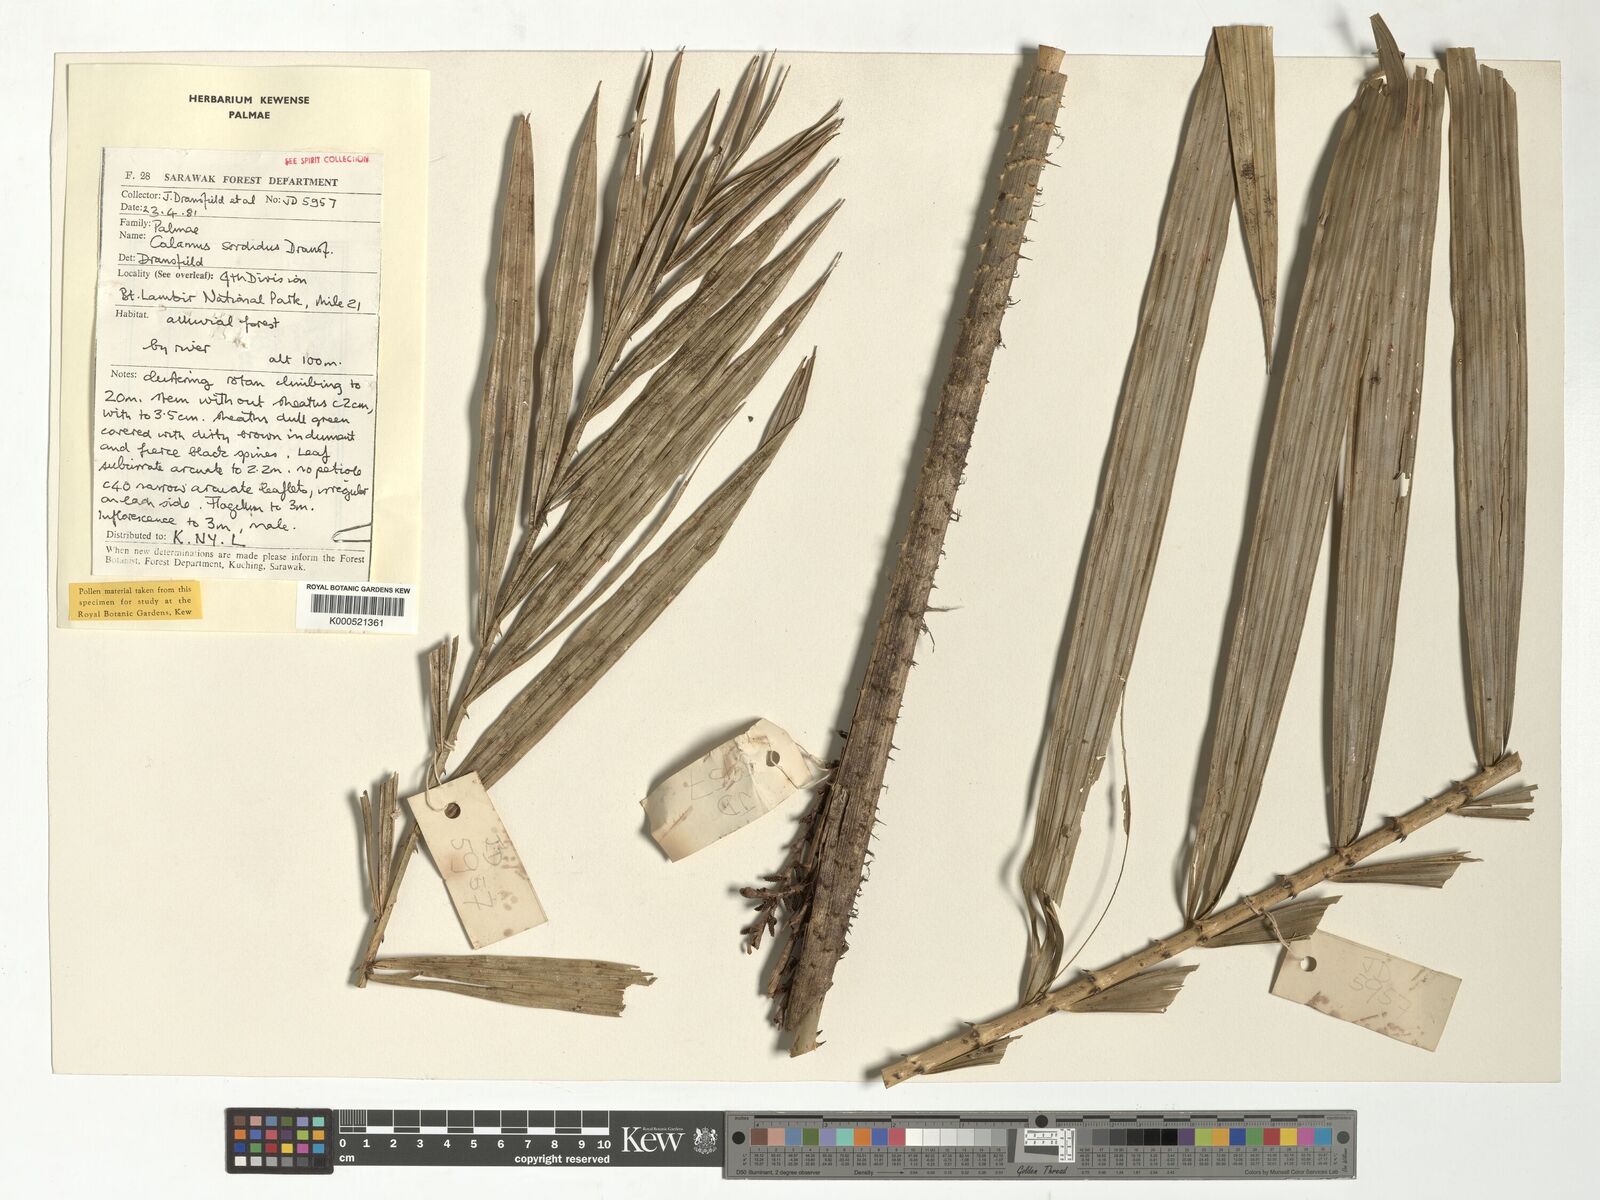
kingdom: Plantae
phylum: Tracheophyta
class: Liliopsida
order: Arecales
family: Arecaceae
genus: Calamus
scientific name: Calamus sordidus
